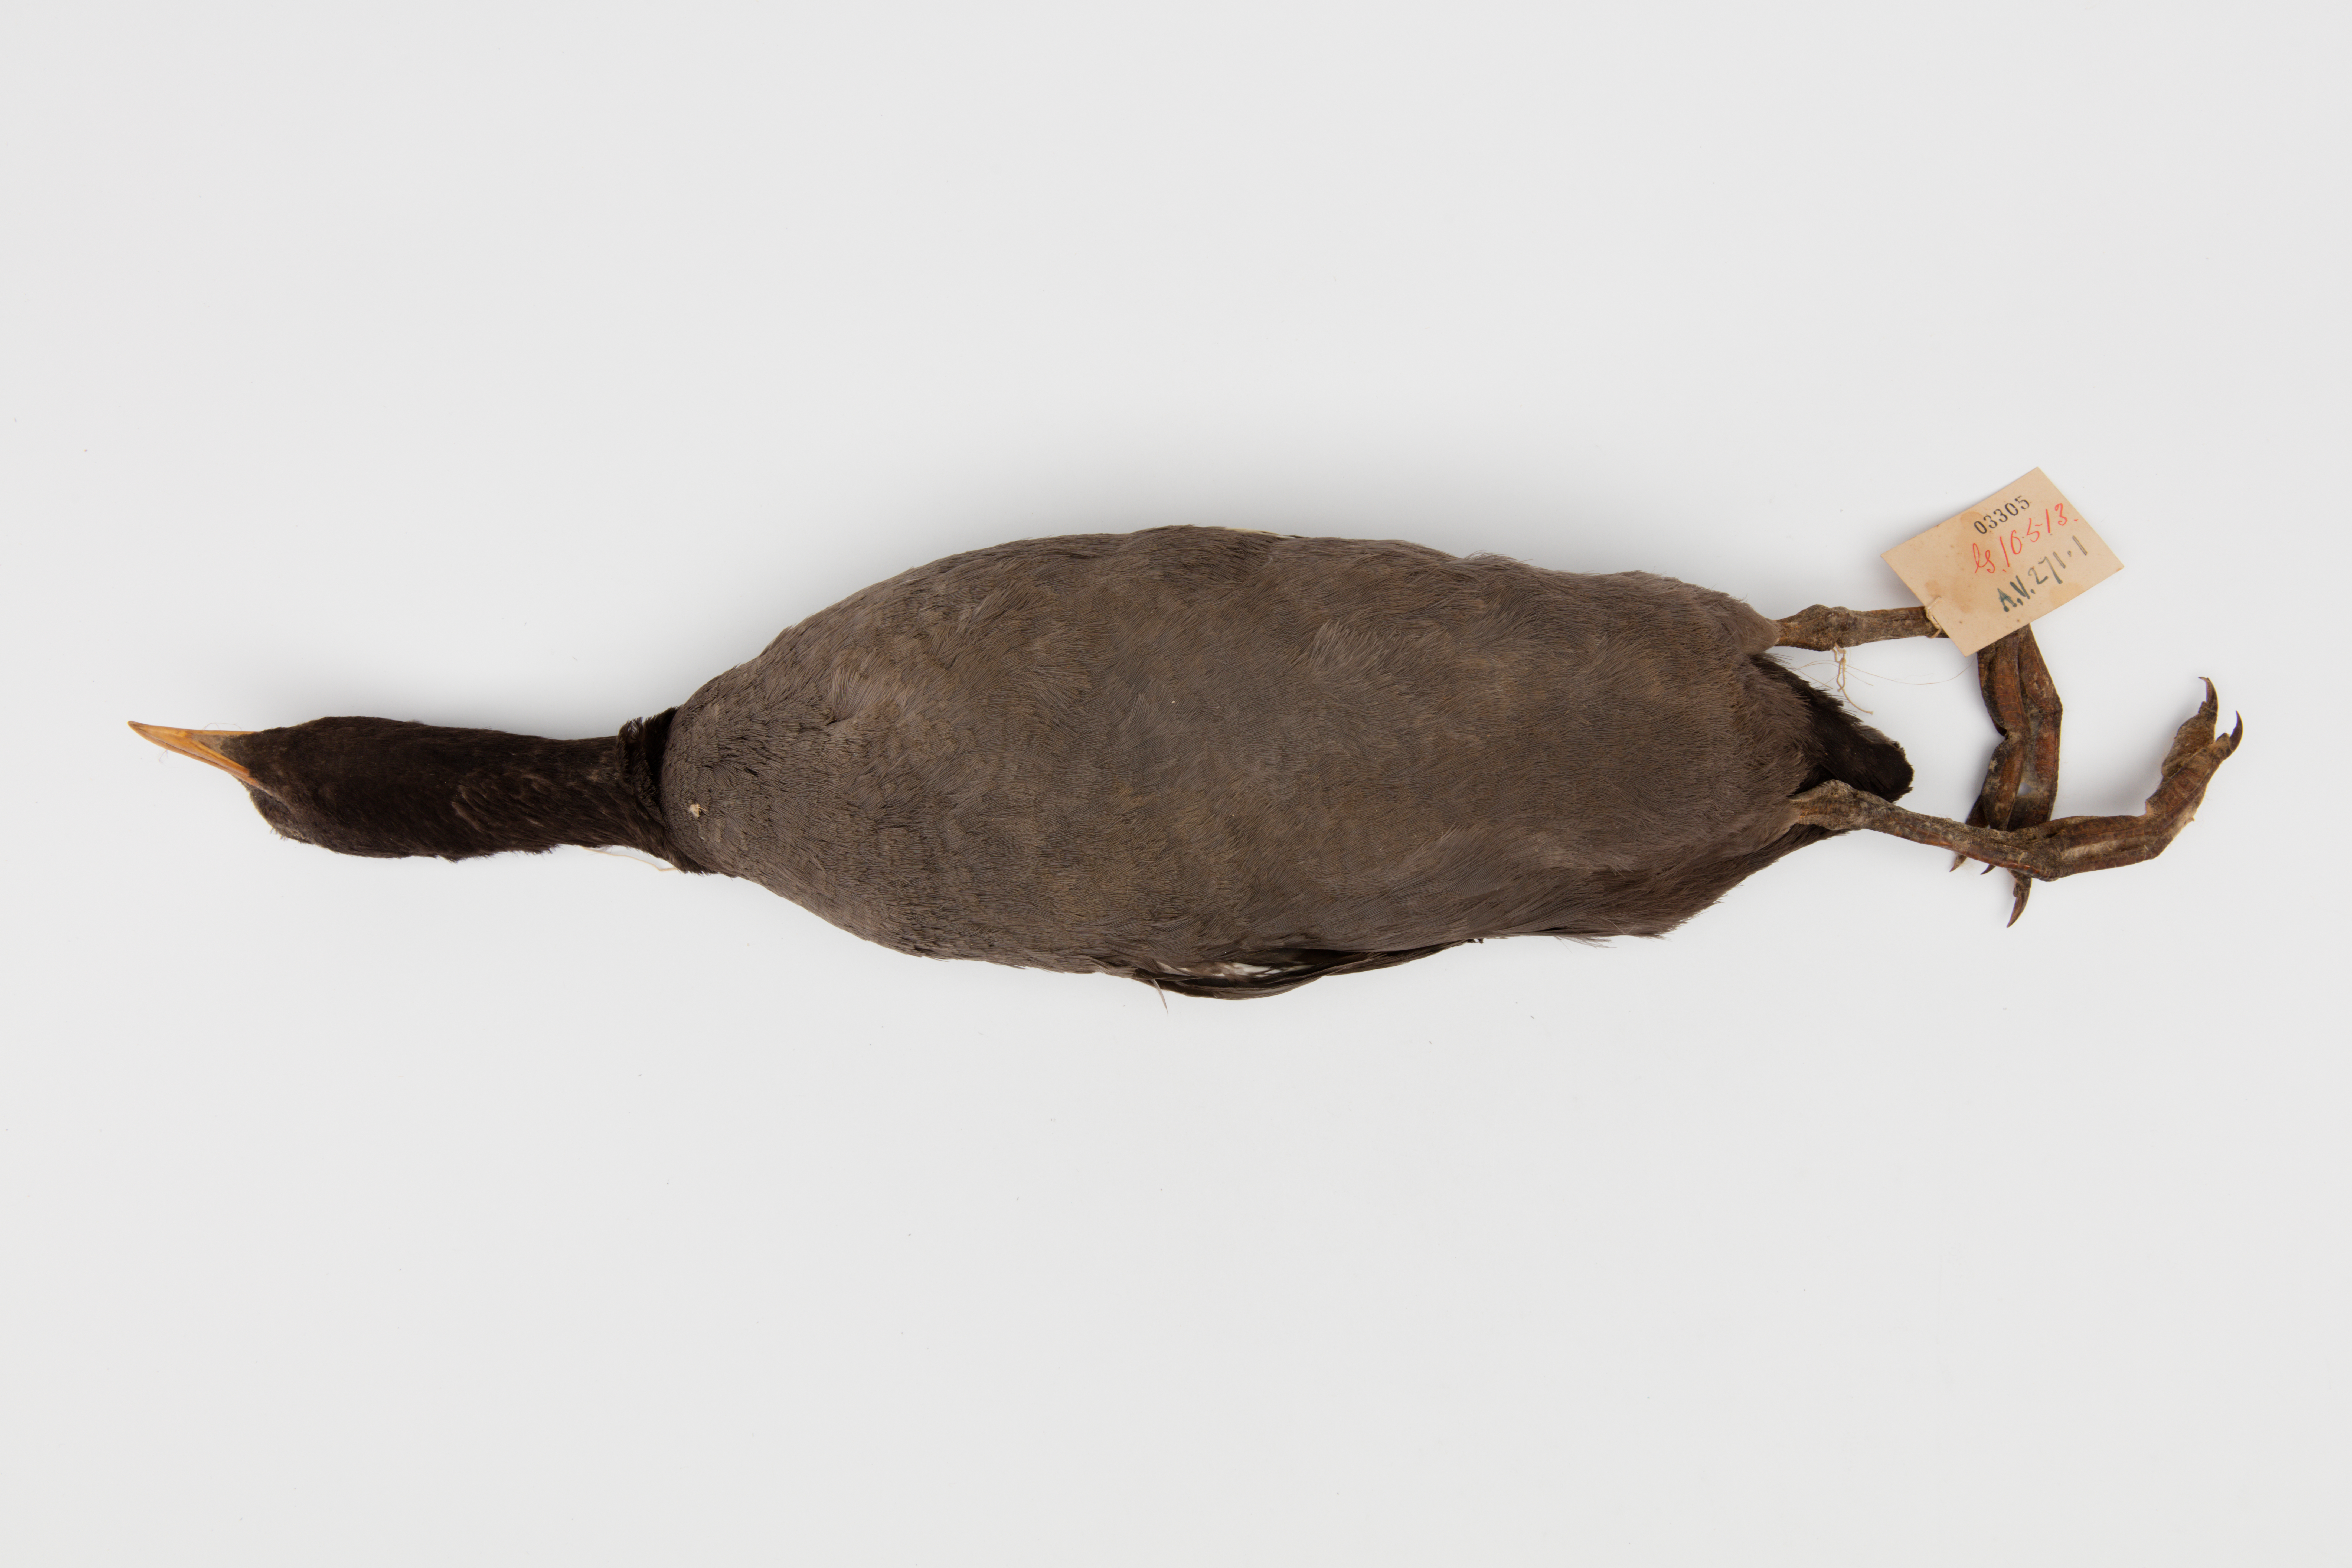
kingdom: Animalia
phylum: Chordata
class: Aves
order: Gruiformes
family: Rallidae
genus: Fulica
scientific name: Fulica atra
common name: Eurasian coot
